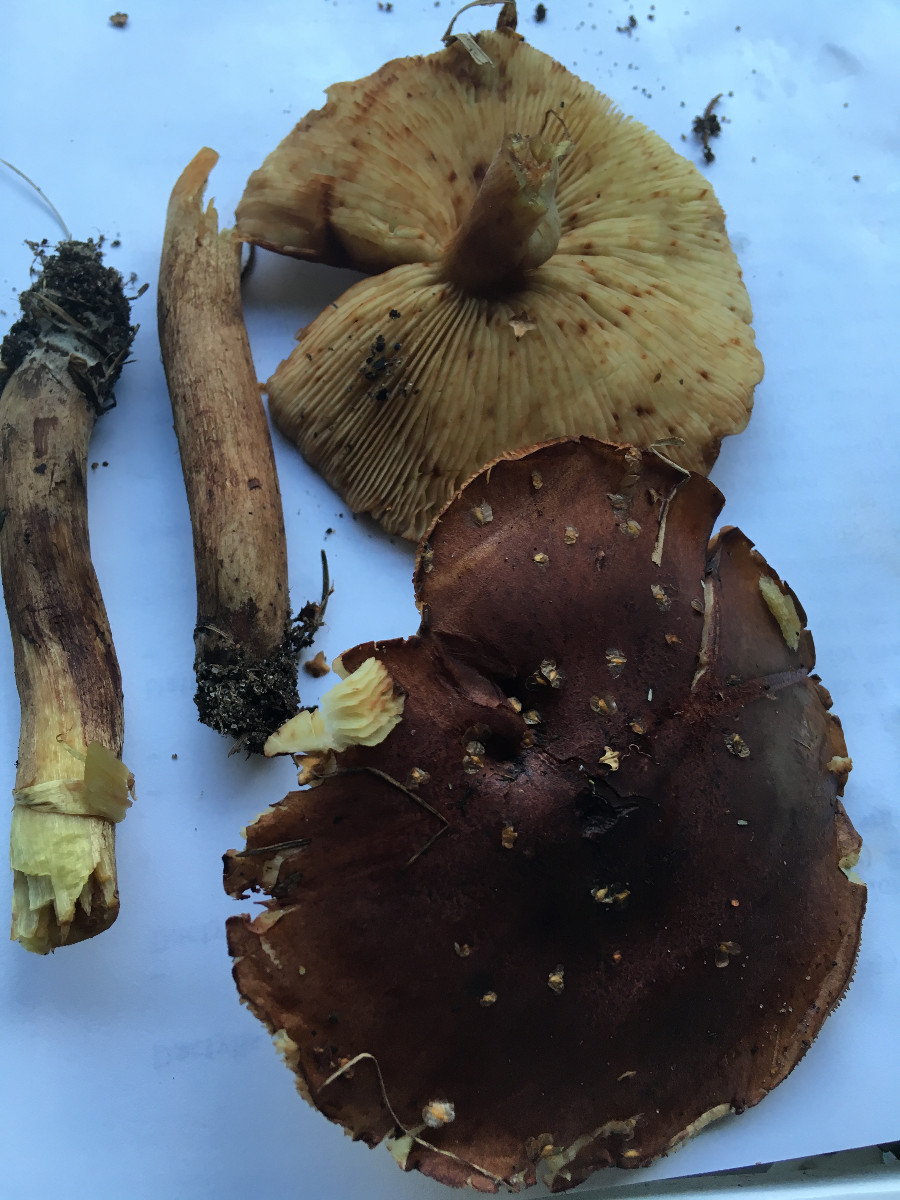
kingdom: Fungi
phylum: Basidiomycota
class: Agaricomycetes
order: Agaricales
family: Tricholomataceae
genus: Tricholoma
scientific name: Tricholoma fulvum
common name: birke-ridderhat
